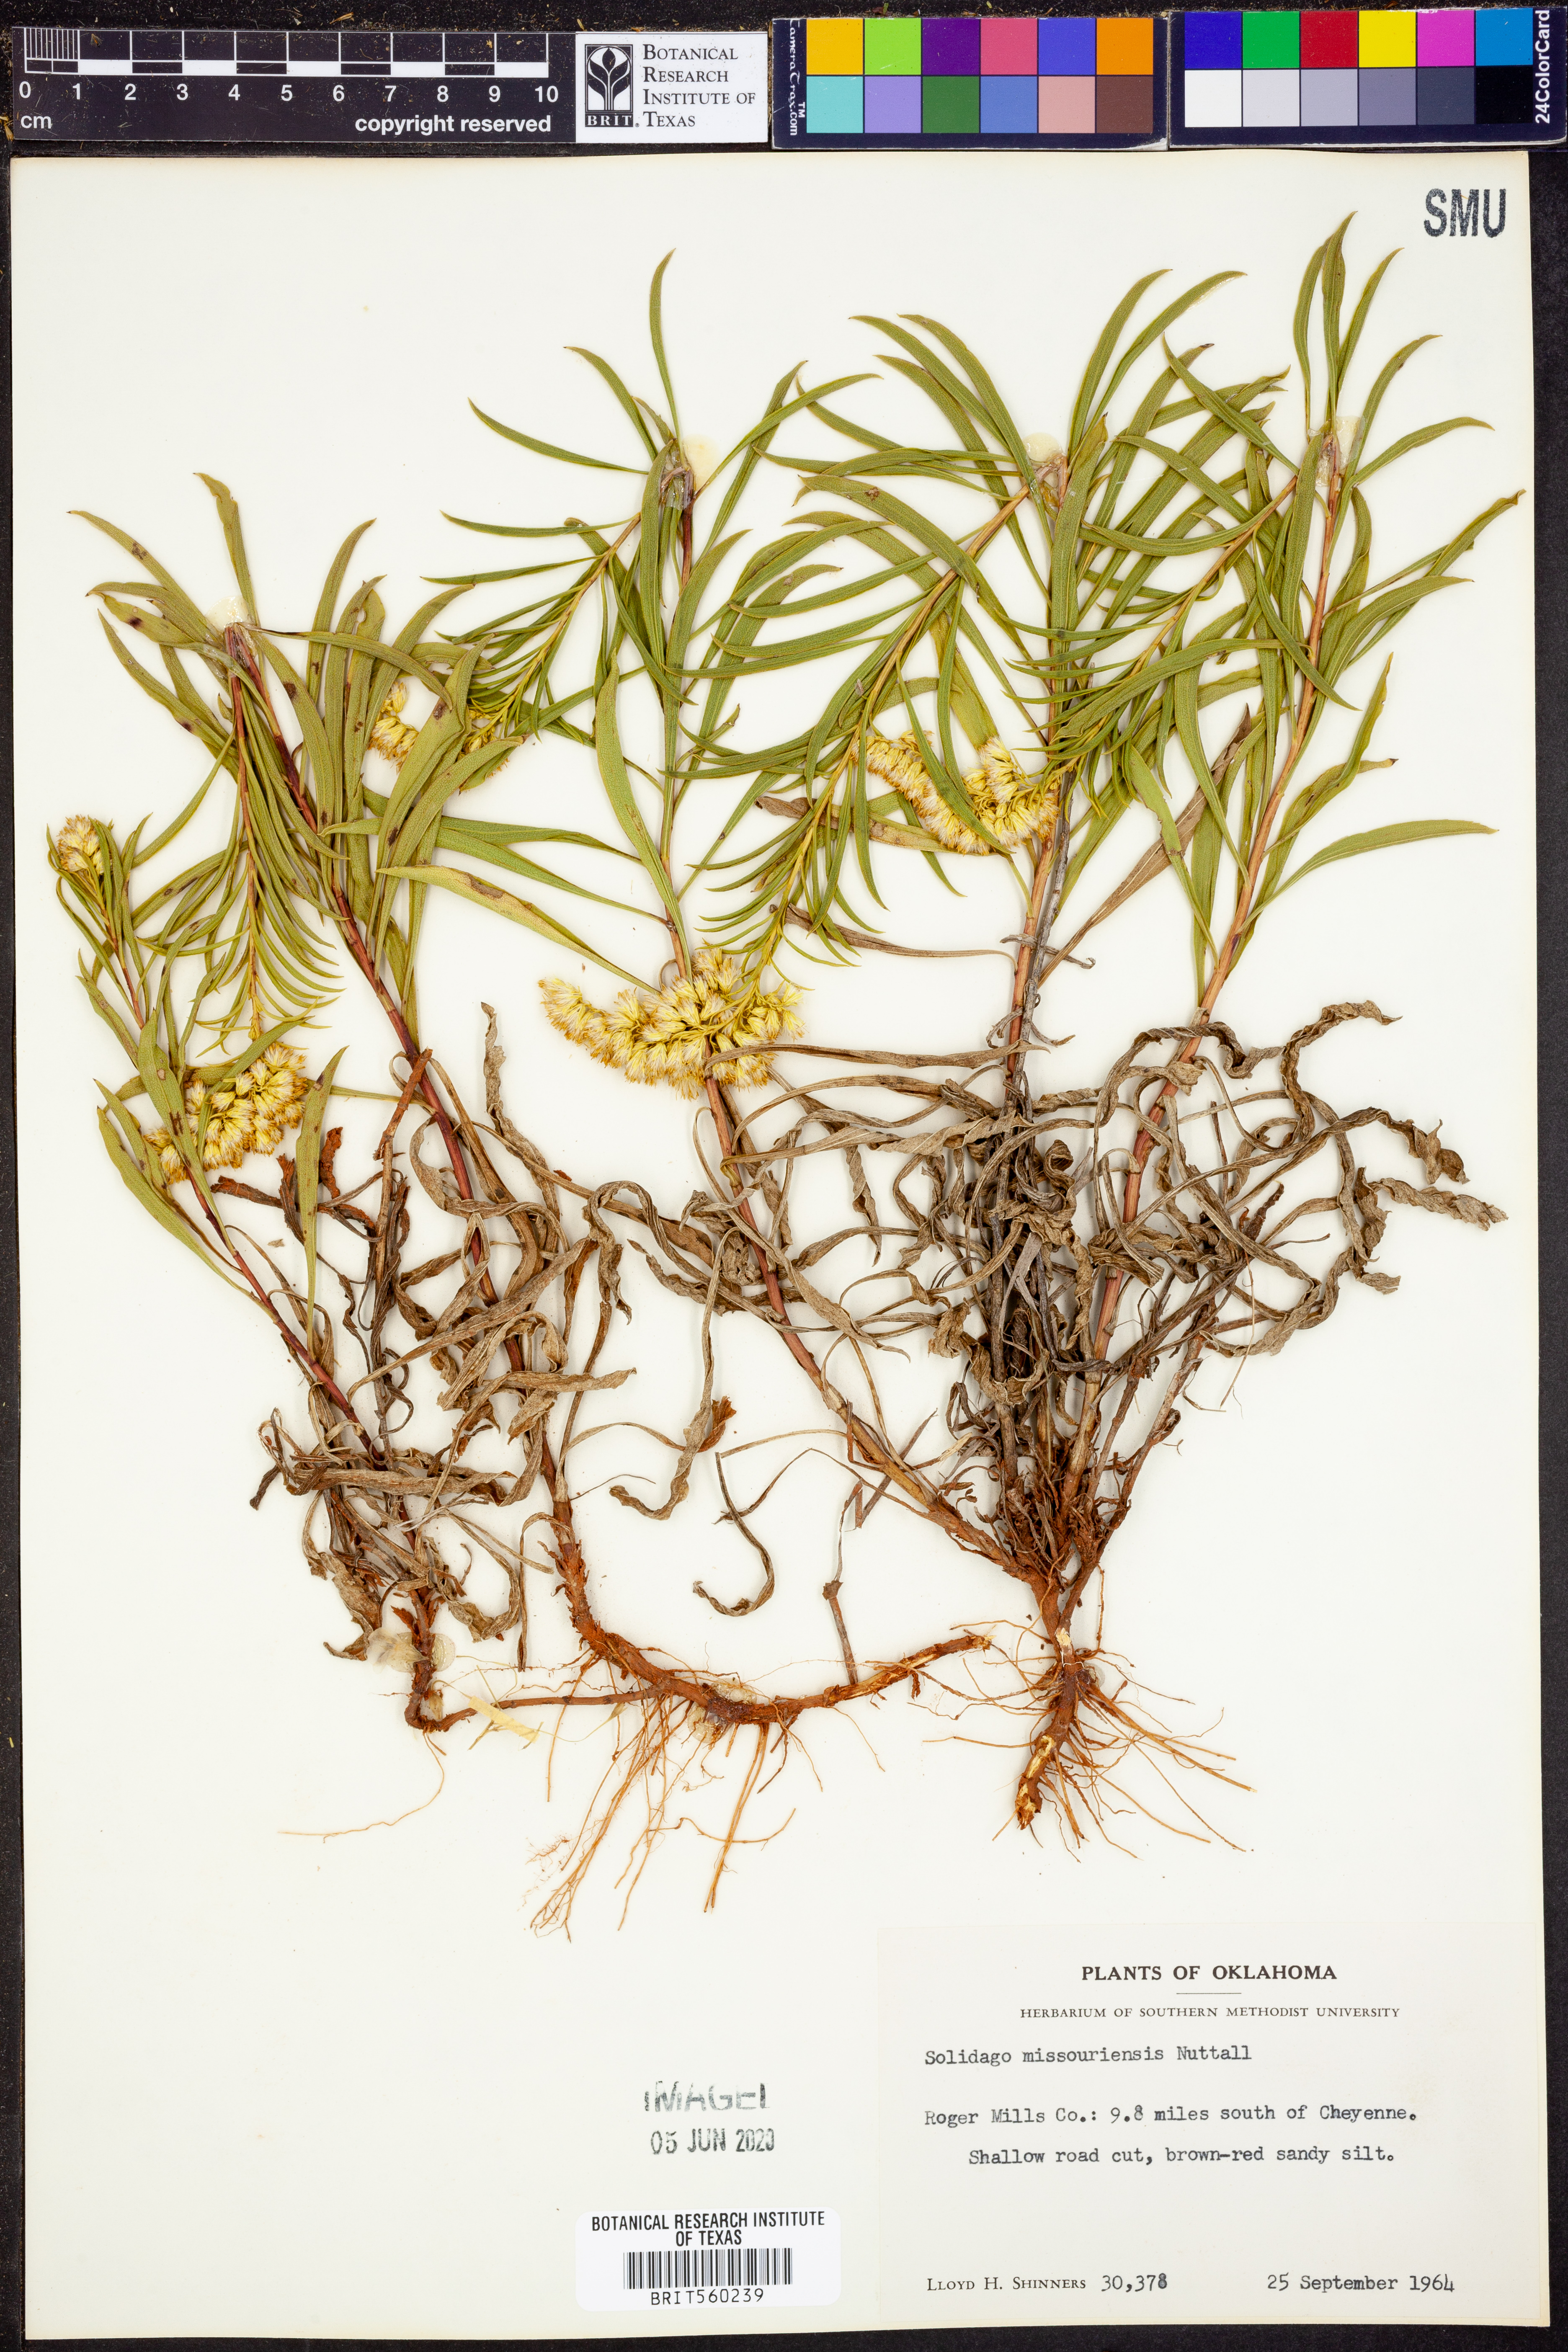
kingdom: Plantae
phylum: Tracheophyta
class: Magnoliopsida
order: Asterales
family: Asteraceae
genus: Solidago
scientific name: Solidago missouriensis
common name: Prairie goldenrod
